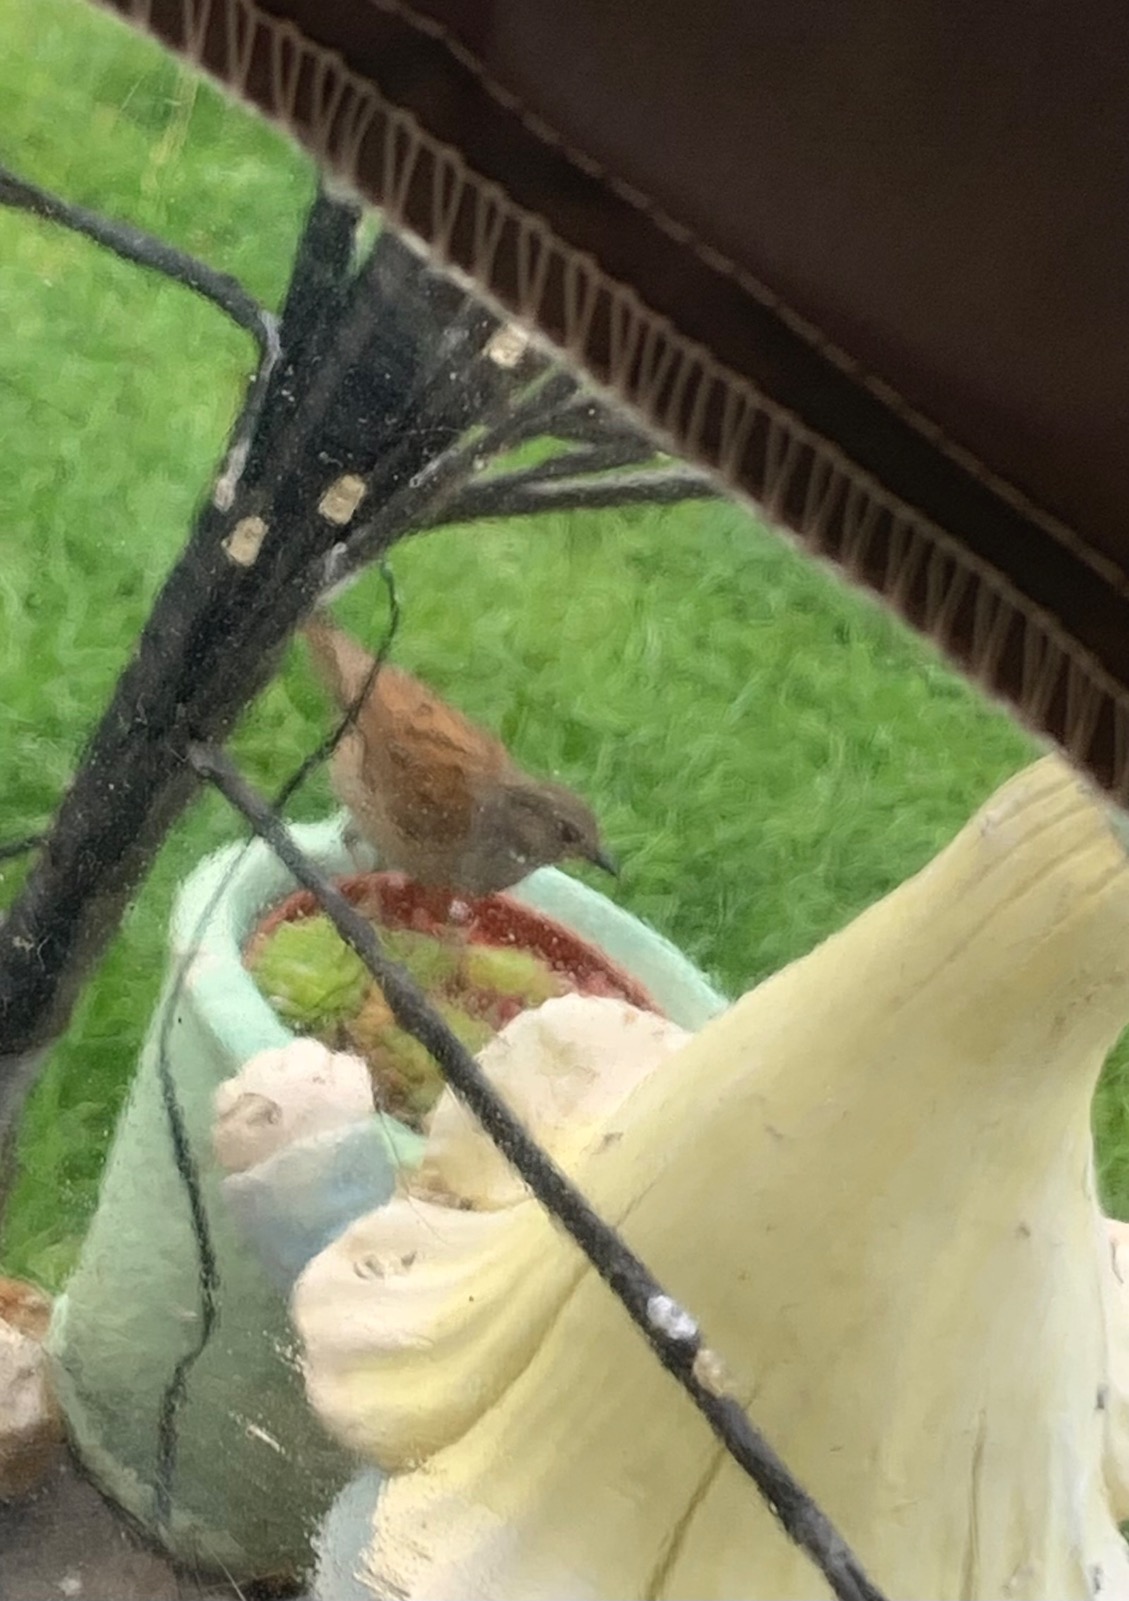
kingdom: Animalia
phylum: Chordata
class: Aves
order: Passeriformes
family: Prunellidae
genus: Prunella
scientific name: Prunella modularis
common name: Jernspurv
